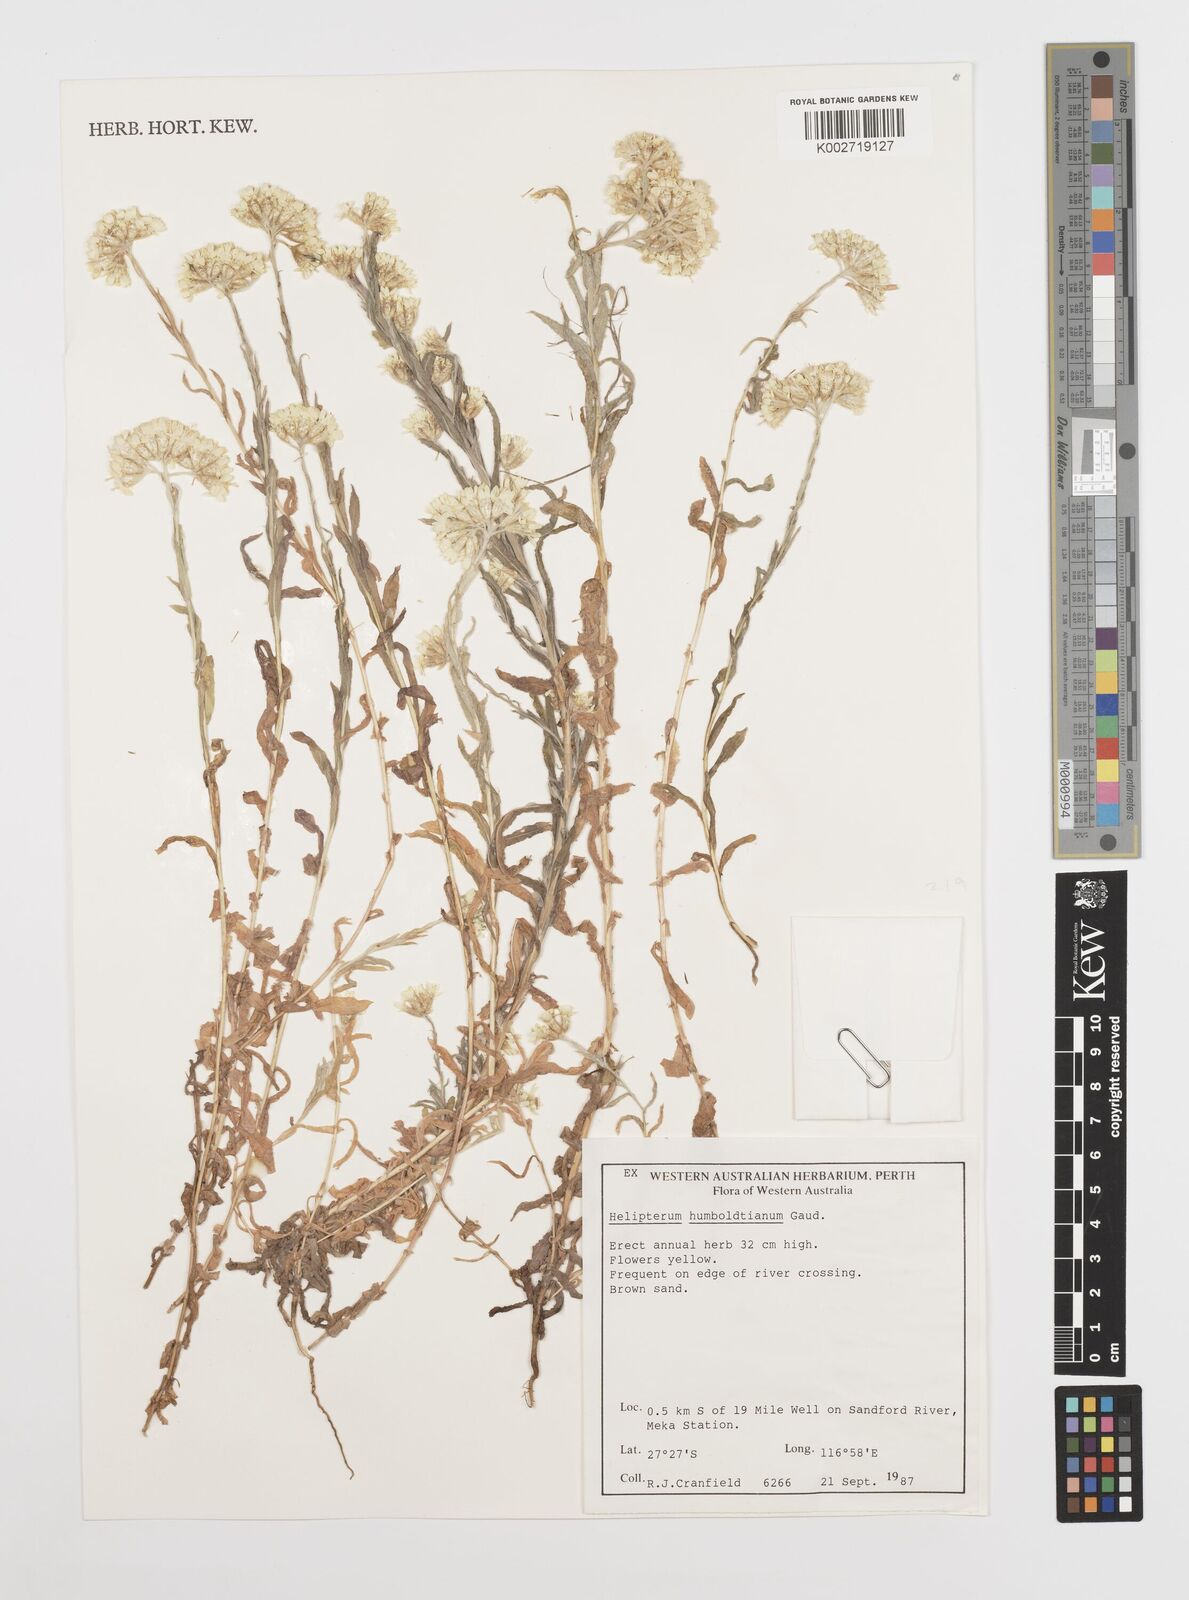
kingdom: Plantae
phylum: Tracheophyta
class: Magnoliopsida
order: Asterales
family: Asteraceae
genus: Rhodanthe
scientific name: Rhodanthe humboldtiana
